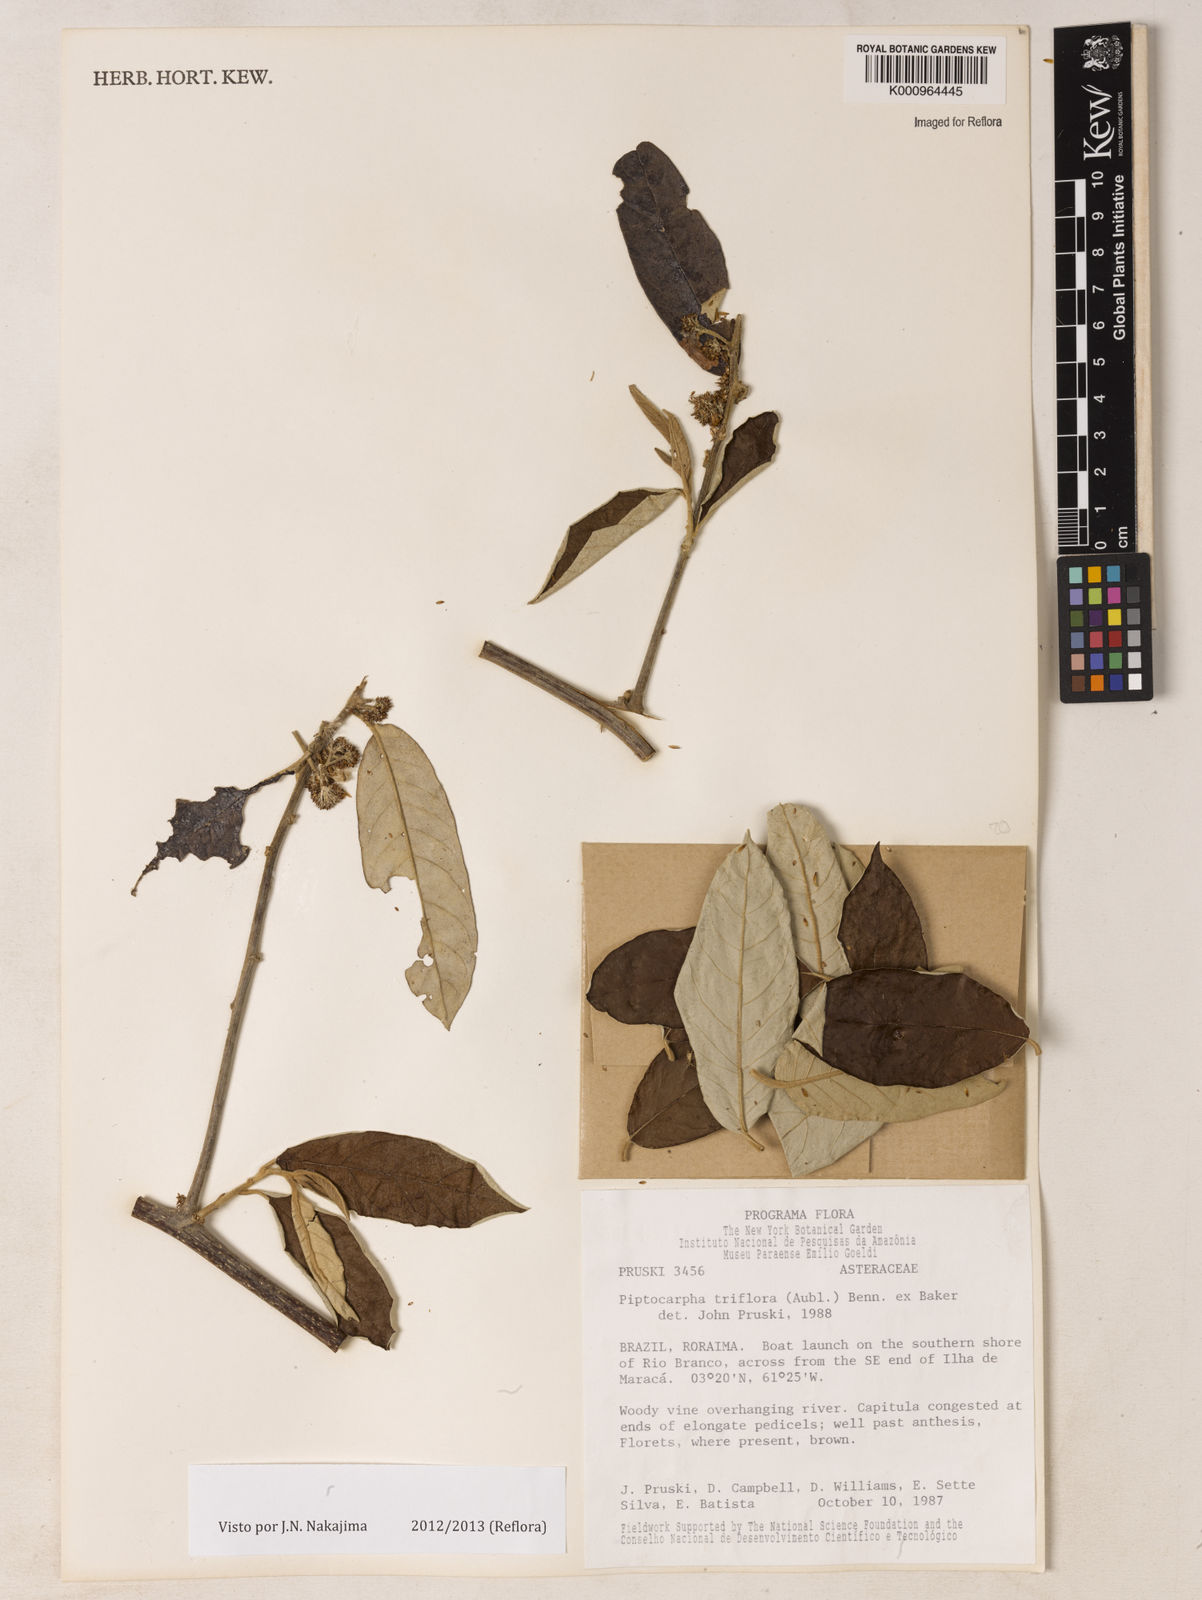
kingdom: Plantae
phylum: Tracheophyta
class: Magnoliopsida
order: Asterales
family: Asteraceae
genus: Piptocarpha
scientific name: Piptocarpha triflora
